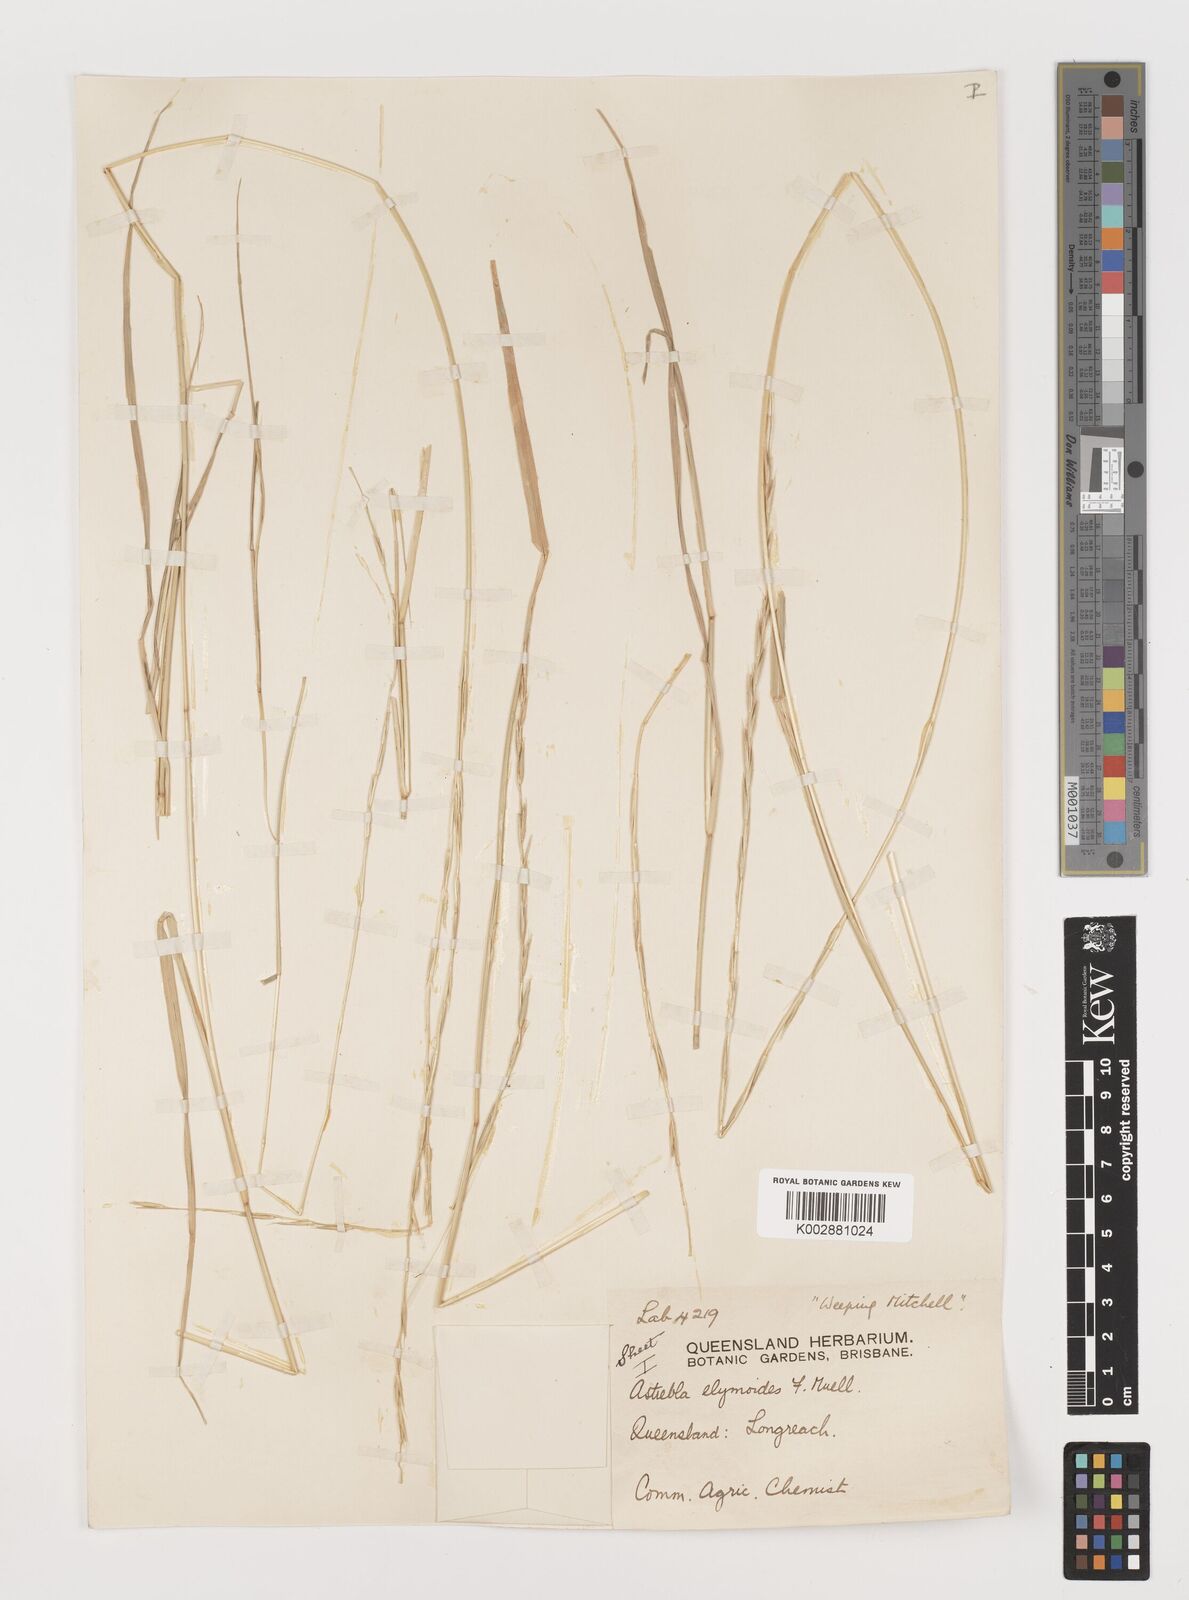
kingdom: Plantae
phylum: Tracheophyta
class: Liliopsida
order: Poales
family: Poaceae
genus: Astrebla
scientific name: Astrebla elymoides
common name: Hoop mitchell grass
